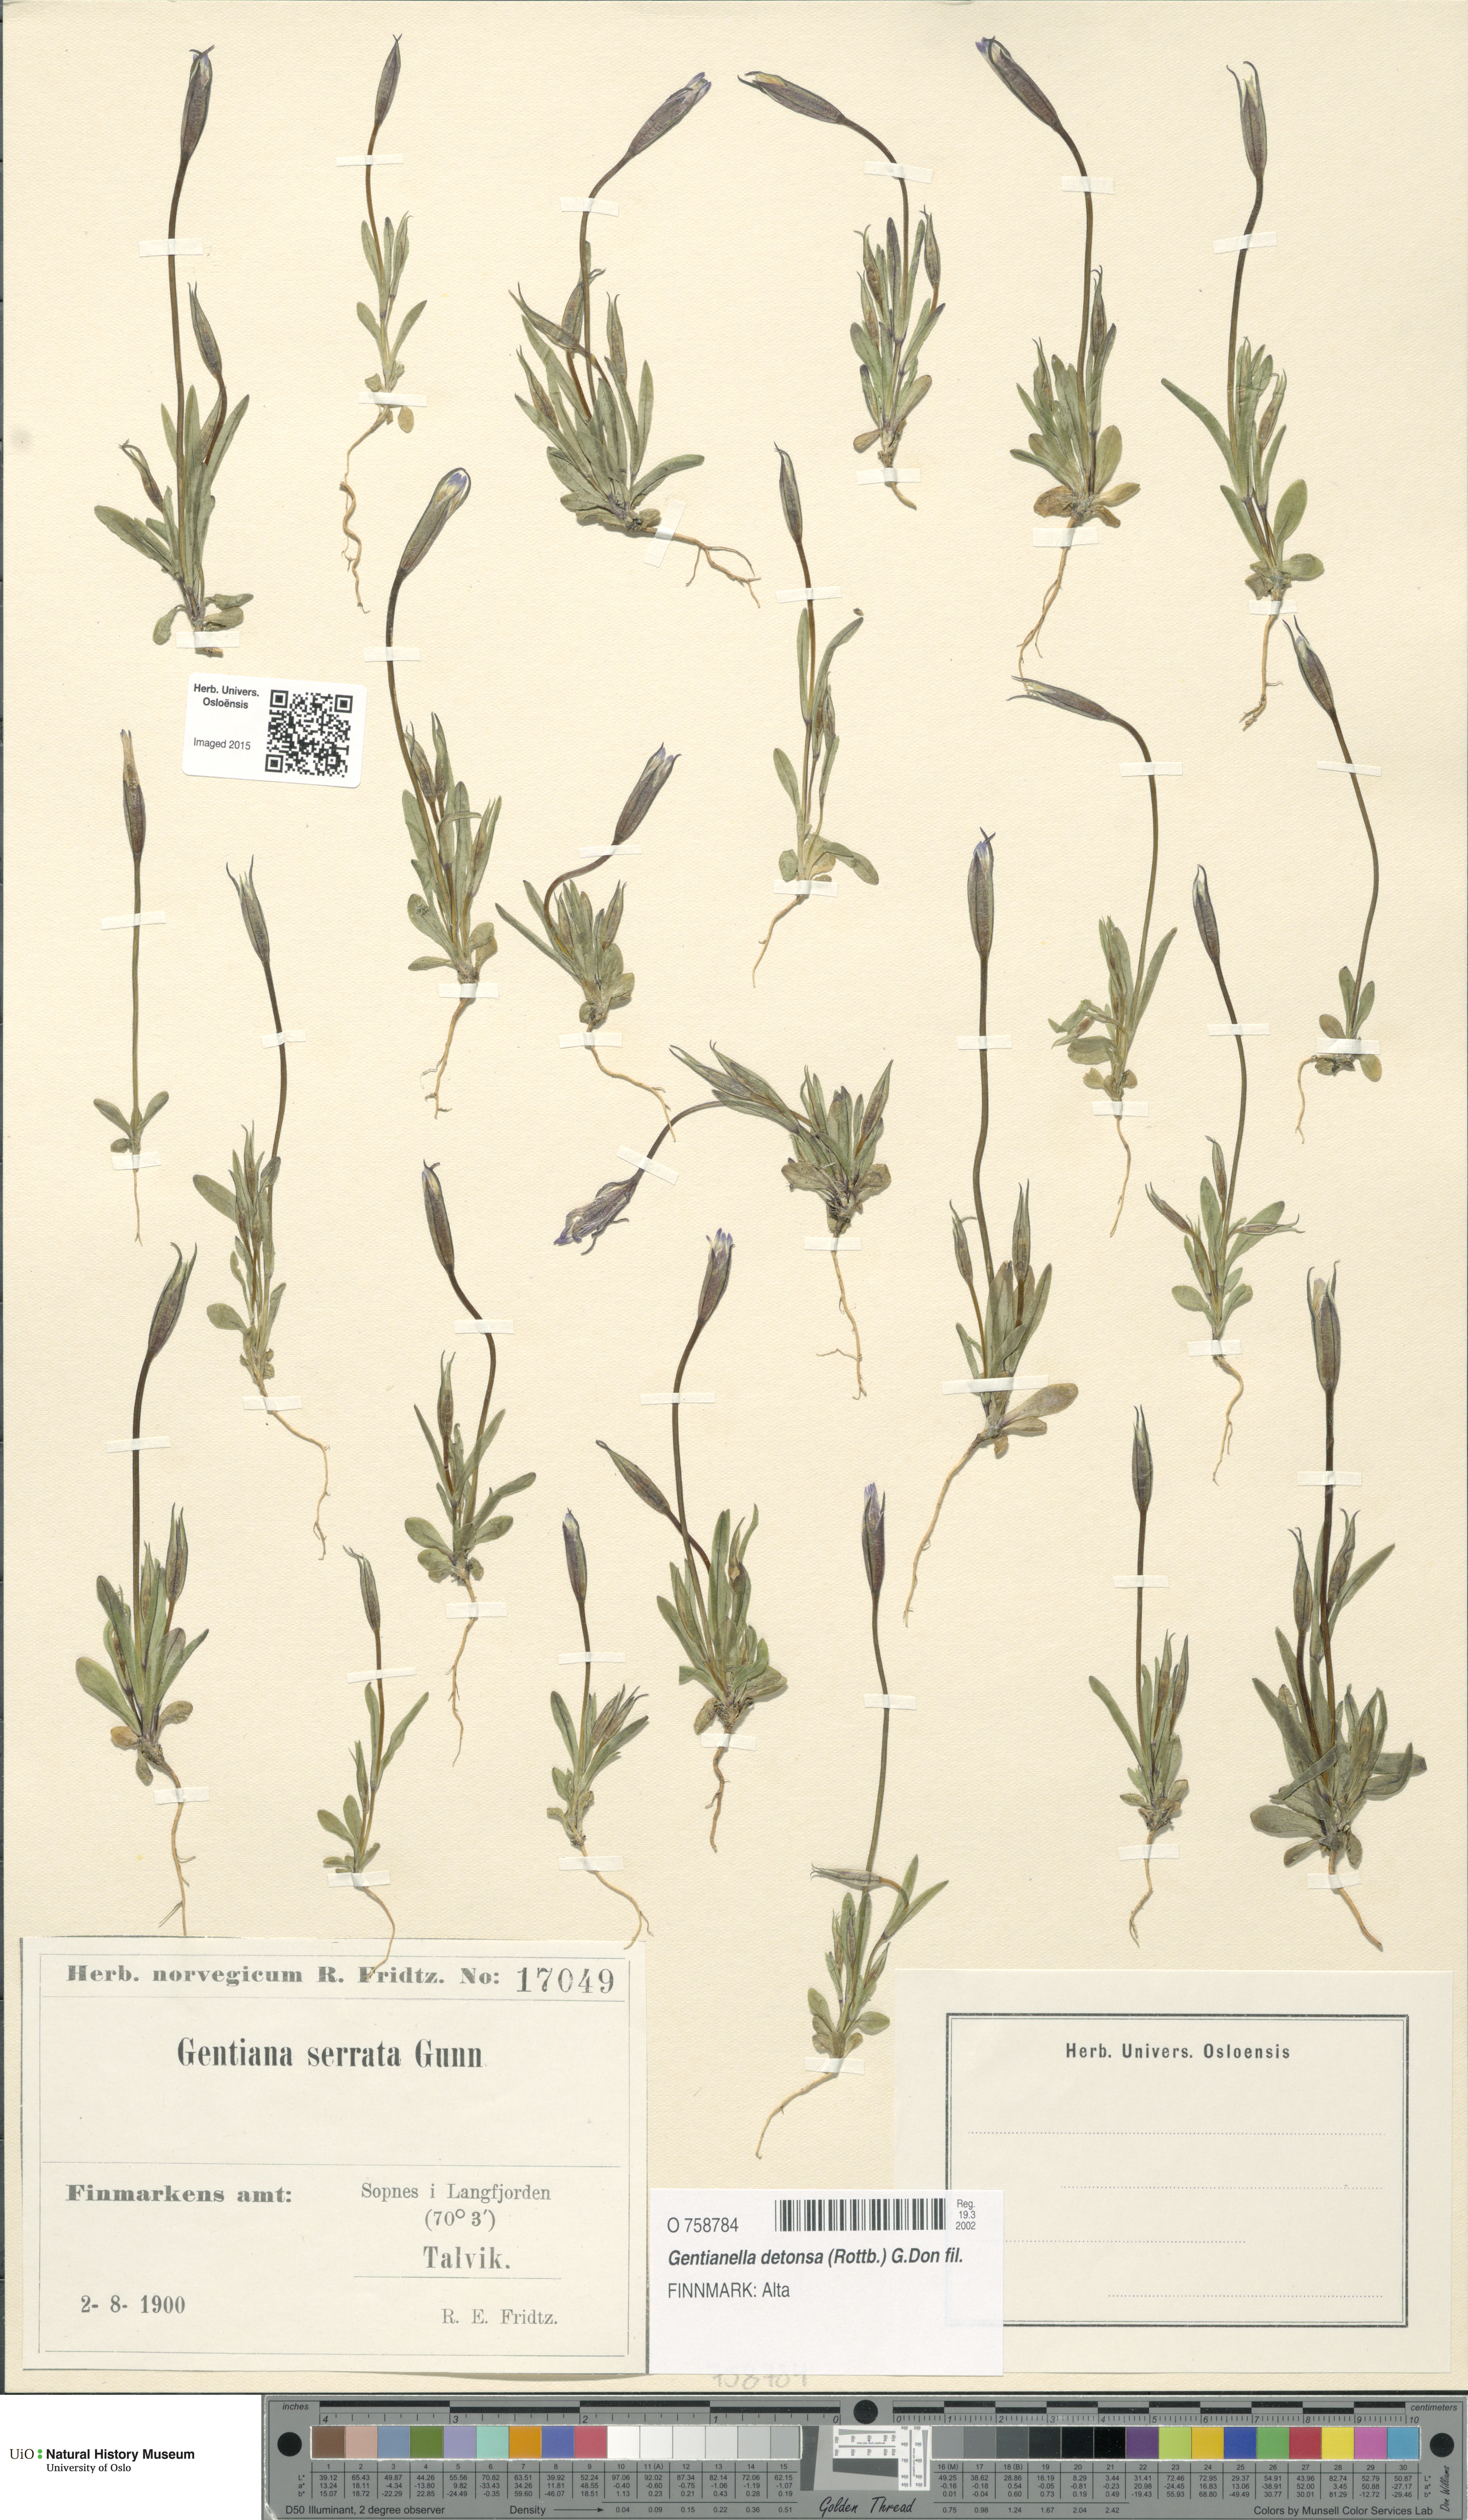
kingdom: Plantae
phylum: Tracheophyta
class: Magnoliopsida
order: Gentianales
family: Gentianaceae
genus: Gentianopsis
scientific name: Gentianopsis detonsa
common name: Fringed-gentian
